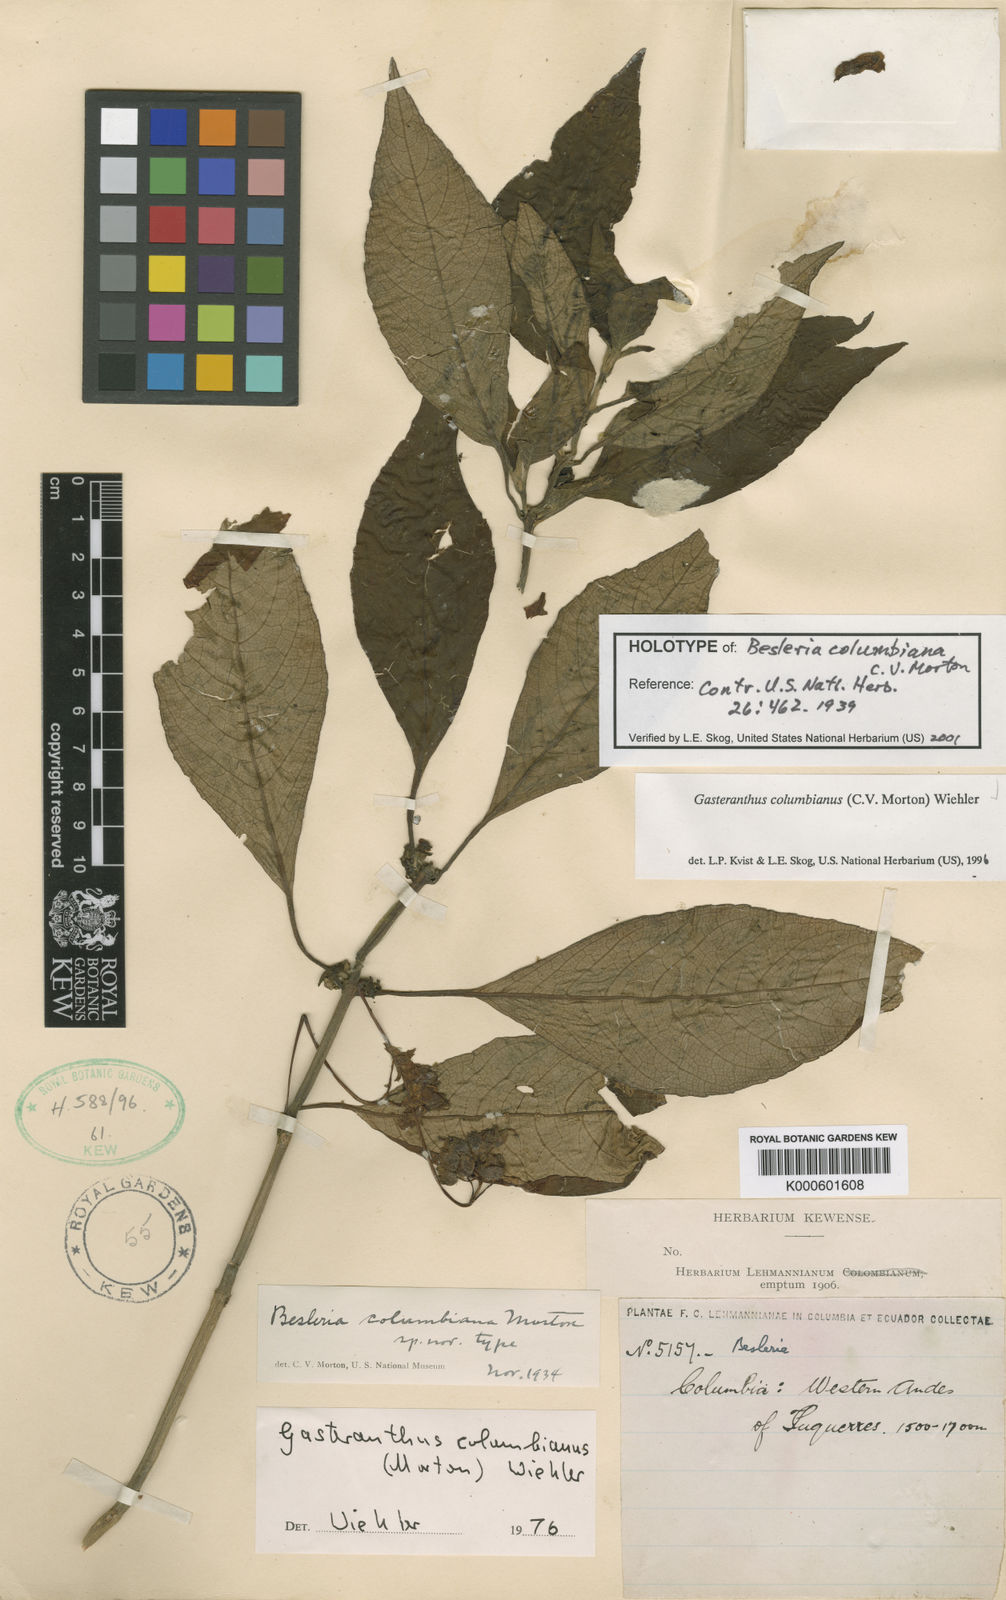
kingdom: Plantae
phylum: Tracheophyta
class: Magnoliopsida
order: Lamiales
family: Gesneriaceae
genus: Gasteranthus
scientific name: Gasteranthus
